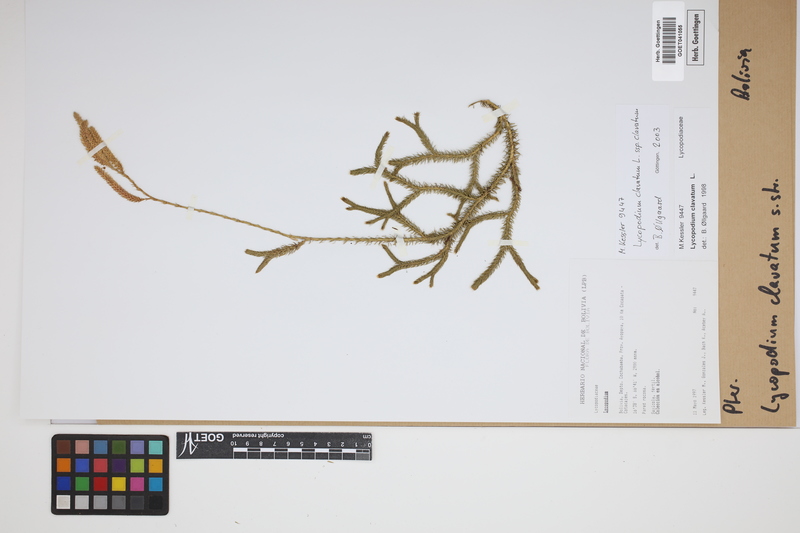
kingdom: Plantae
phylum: Tracheophyta
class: Lycopodiopsida
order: Lycopodiales
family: Lycopodiaceae
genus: Lycopodium
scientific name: Lycopodium clavatum
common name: Stag's-horn clubmoss
